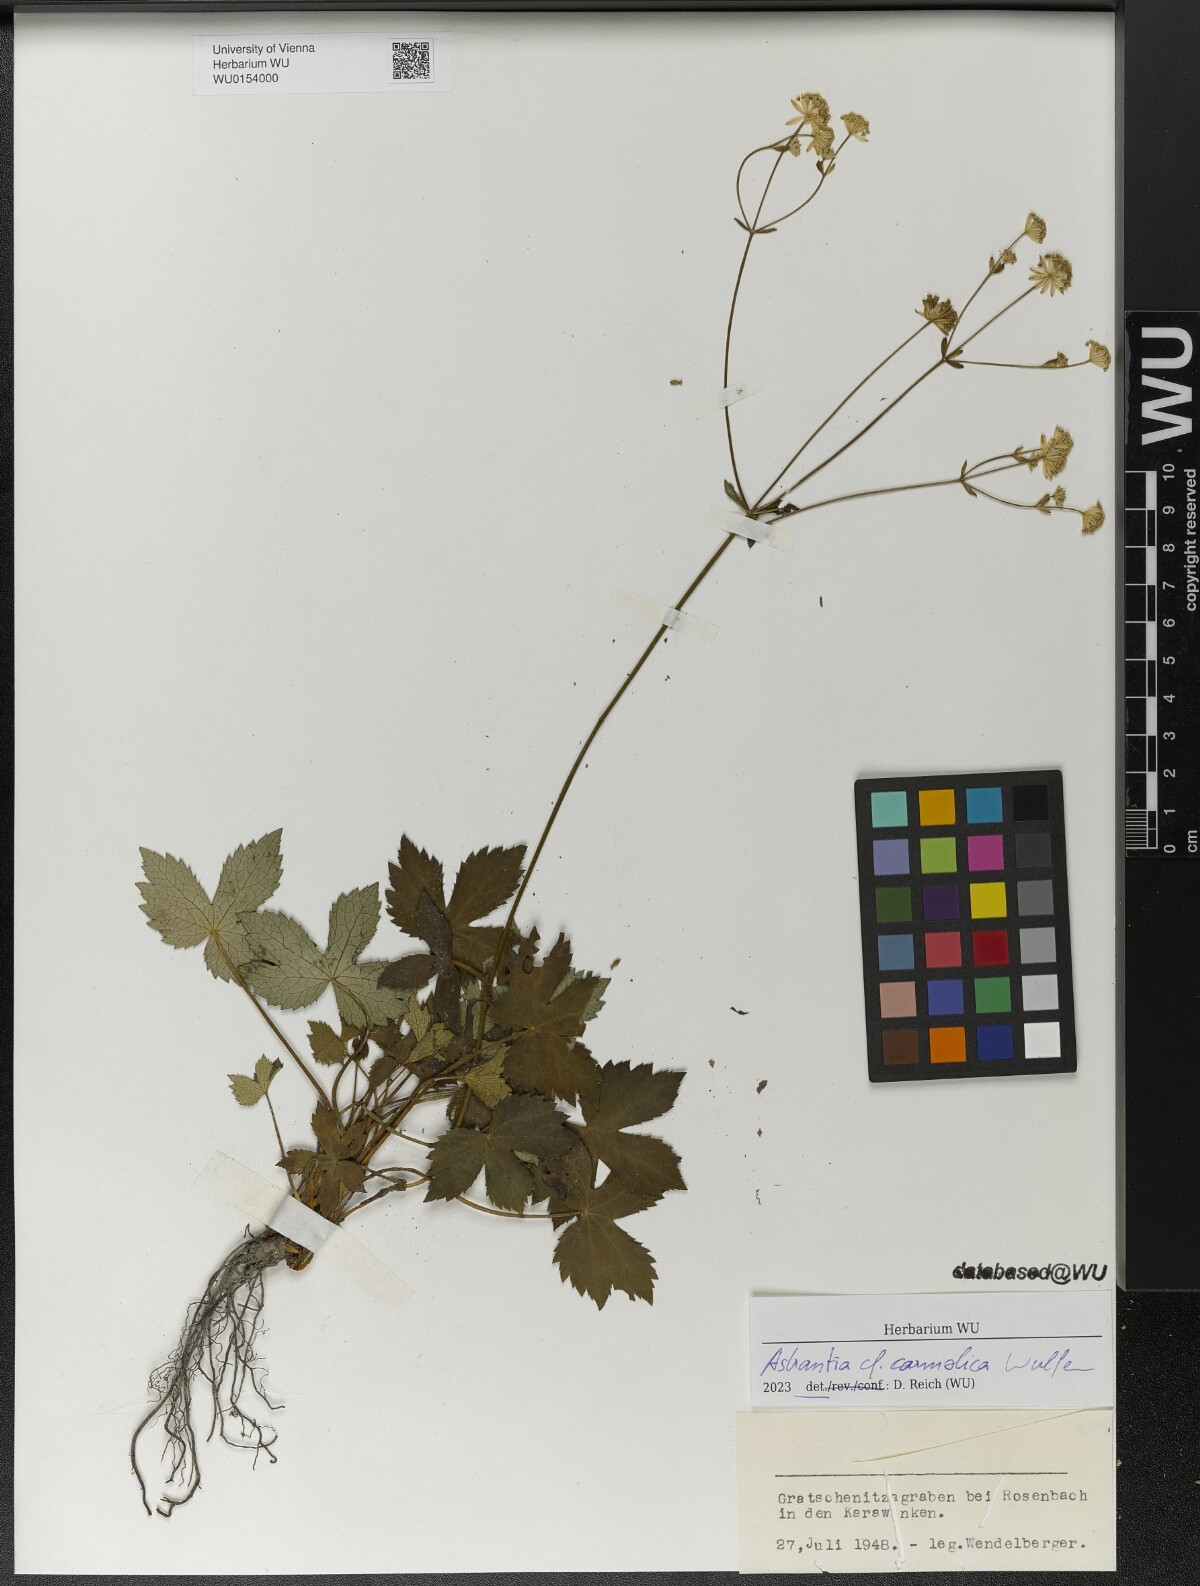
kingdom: Plantae
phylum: Tracheophyta
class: Magnoliopsida
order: Apiales
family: Apiaceae
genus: Astrantia
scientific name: Astrantia carniolica
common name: Carnic masterwort
